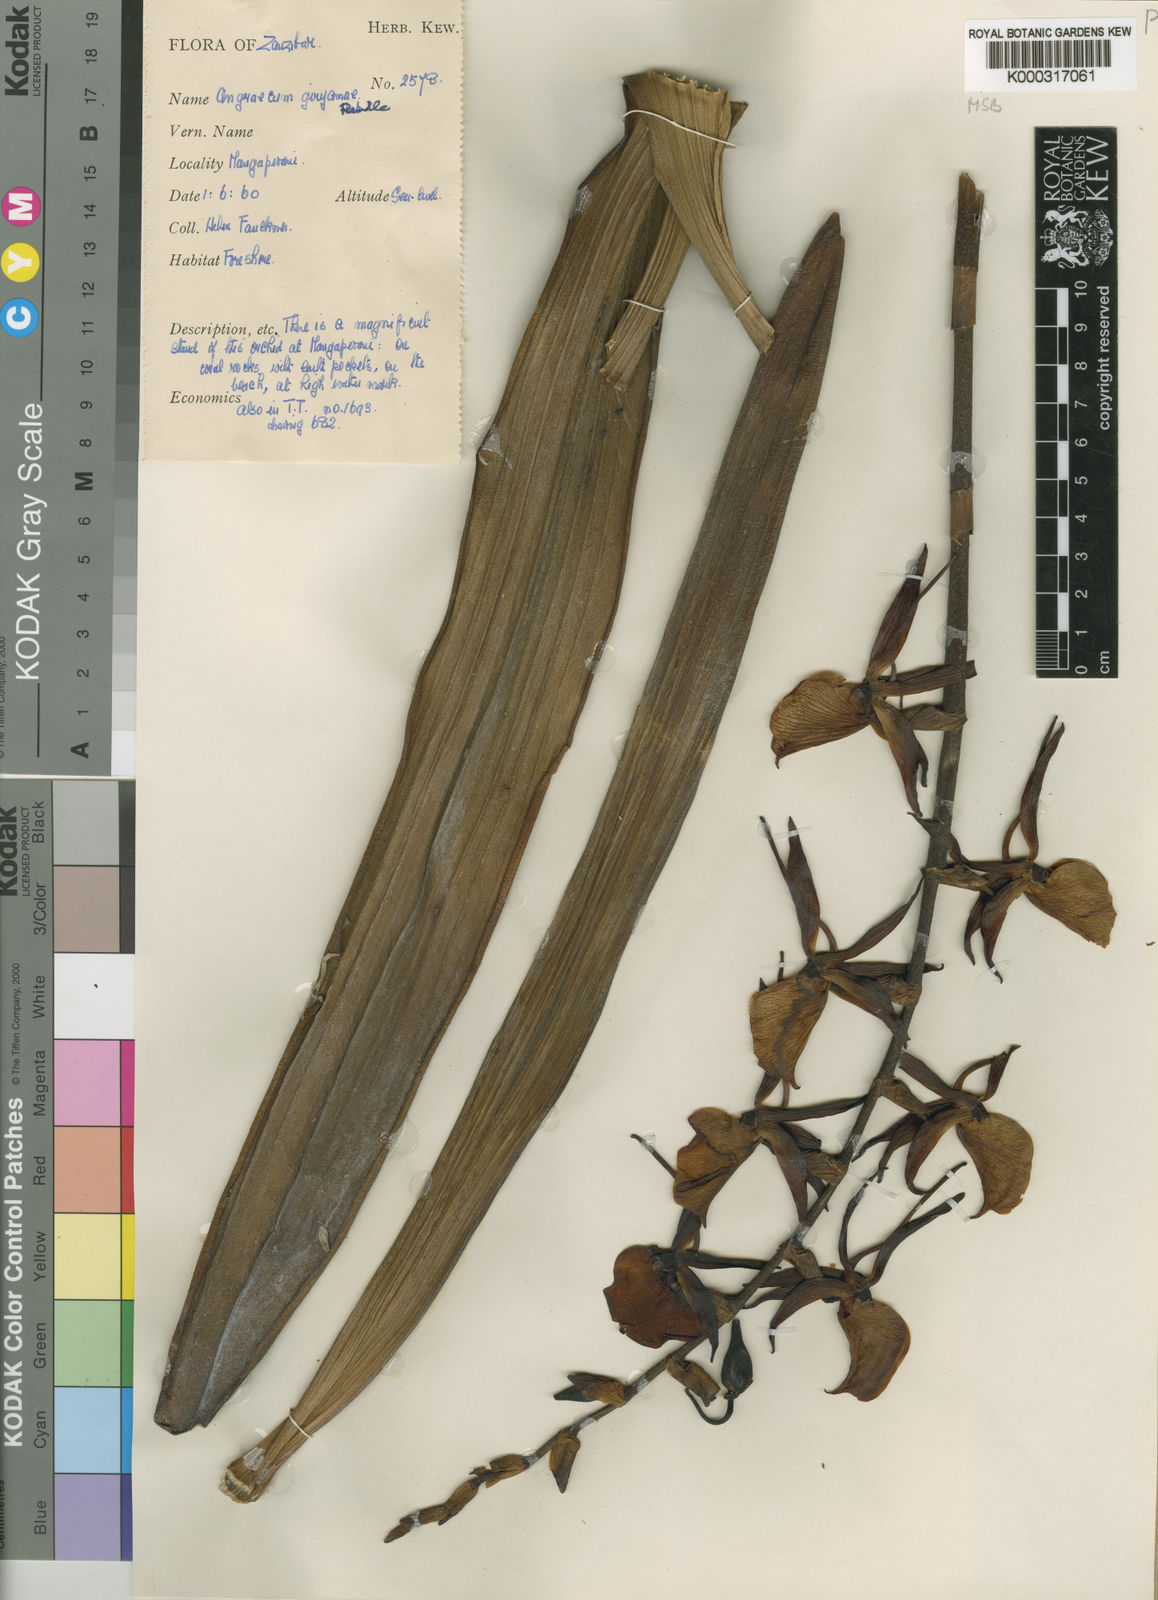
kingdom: Plantae
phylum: Tracheophyta
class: Liliopsida
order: Asparagales
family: Orchidaceae
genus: Angraecum
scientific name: Angraecum eburneum
